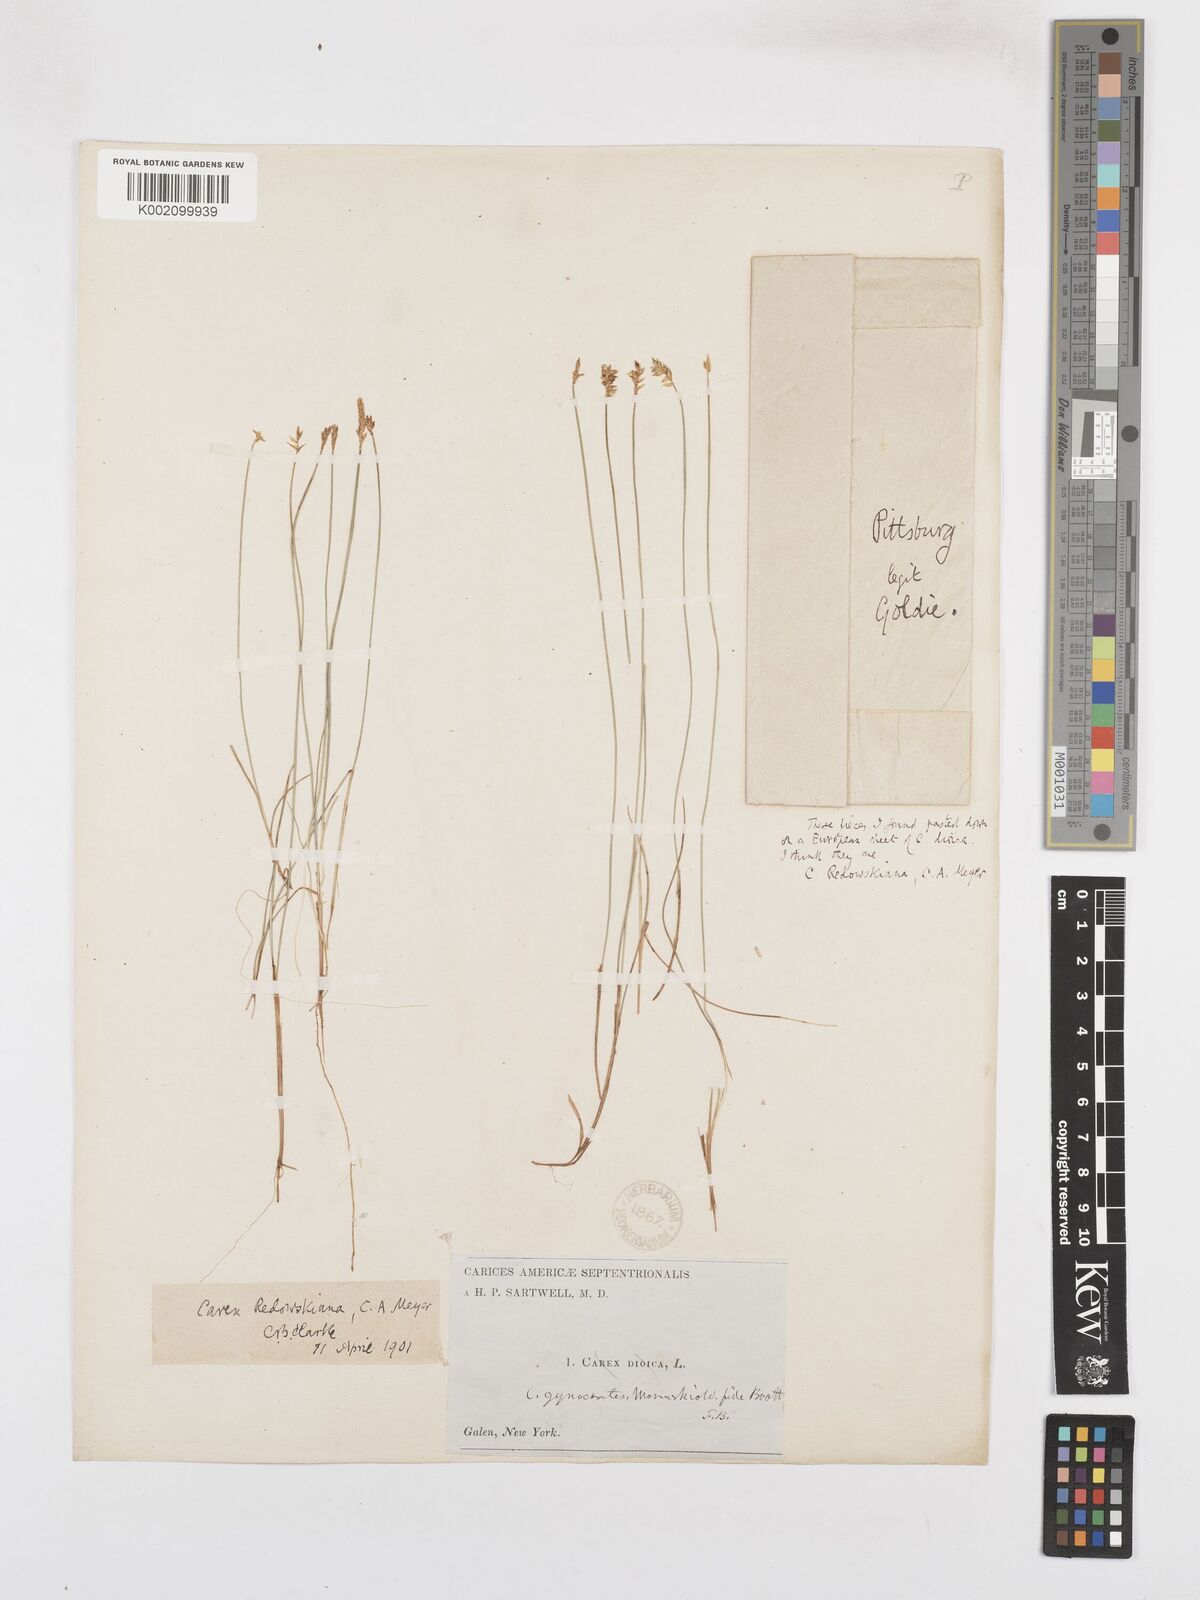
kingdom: Plantae
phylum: Tracheophyta
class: Liliopsida
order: Poales
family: Cyperaceae
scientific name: Cyperaceae
